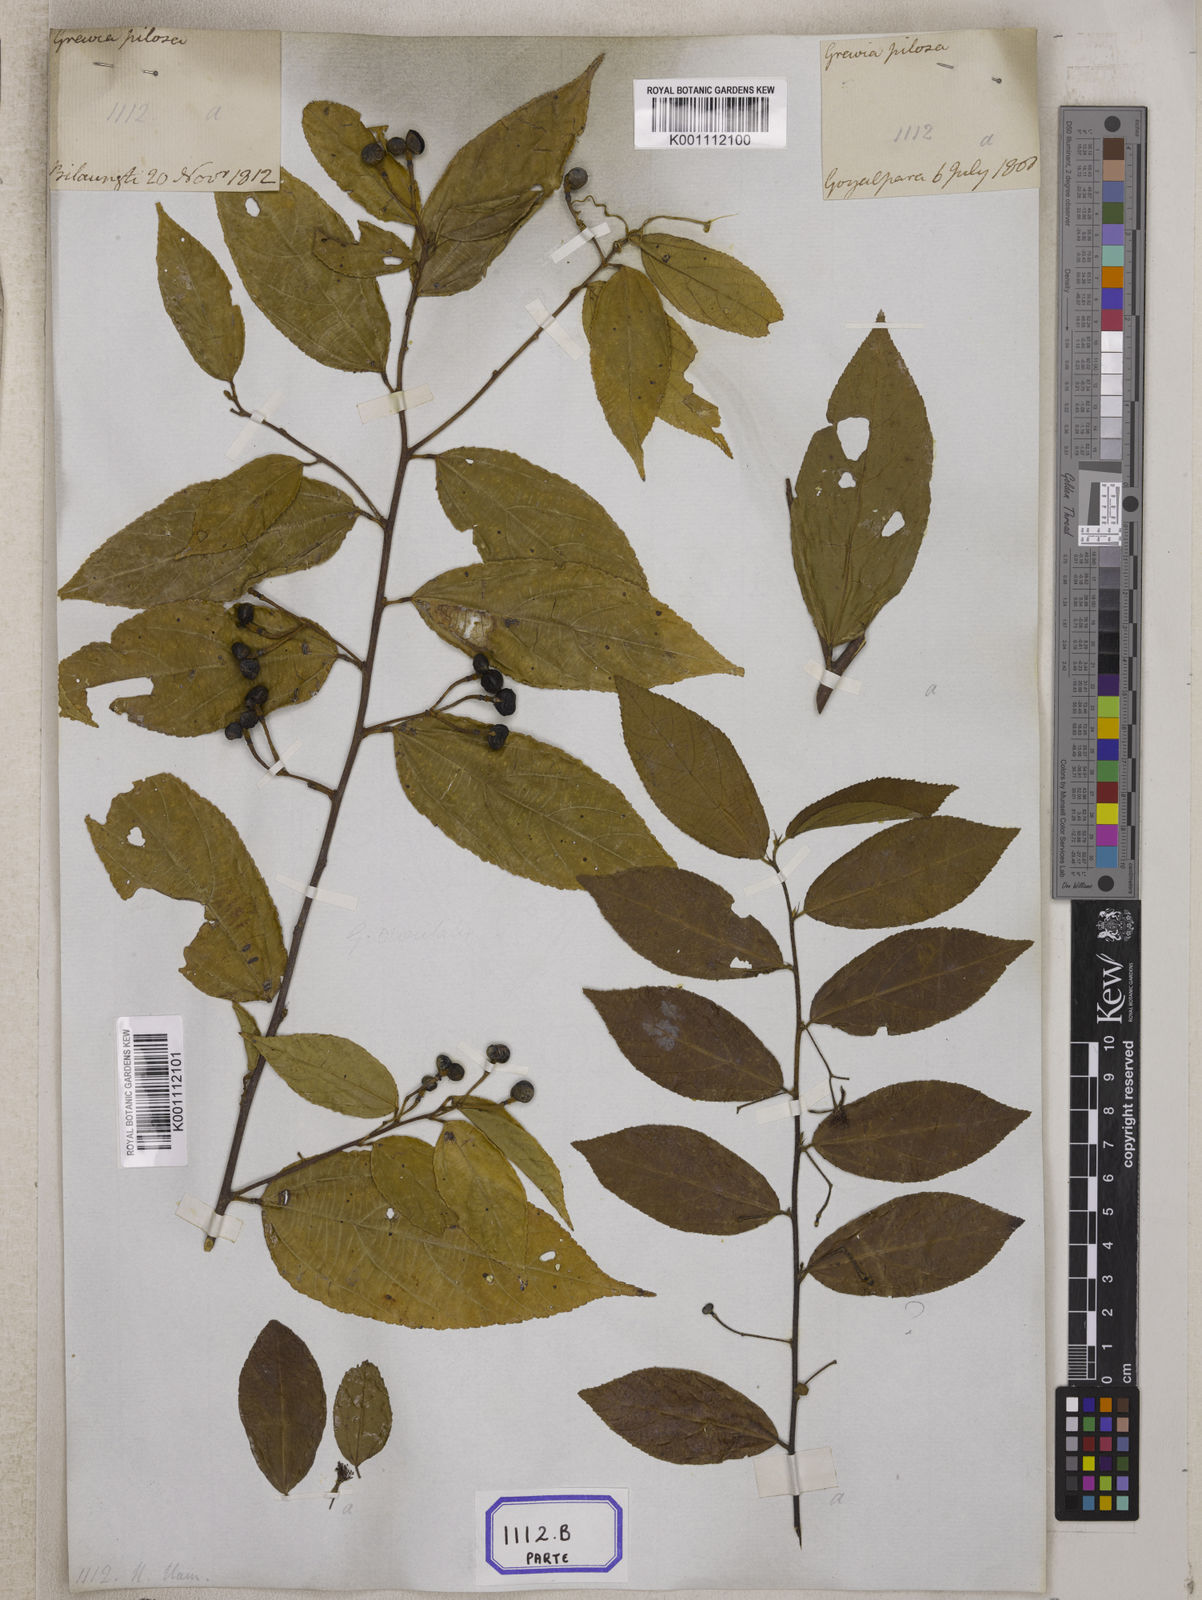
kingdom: Plantae
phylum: Tracheophyta
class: Magnoliopsida
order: Malvales
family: Malvaceae
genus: Grewia
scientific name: Grewia hirsuta
